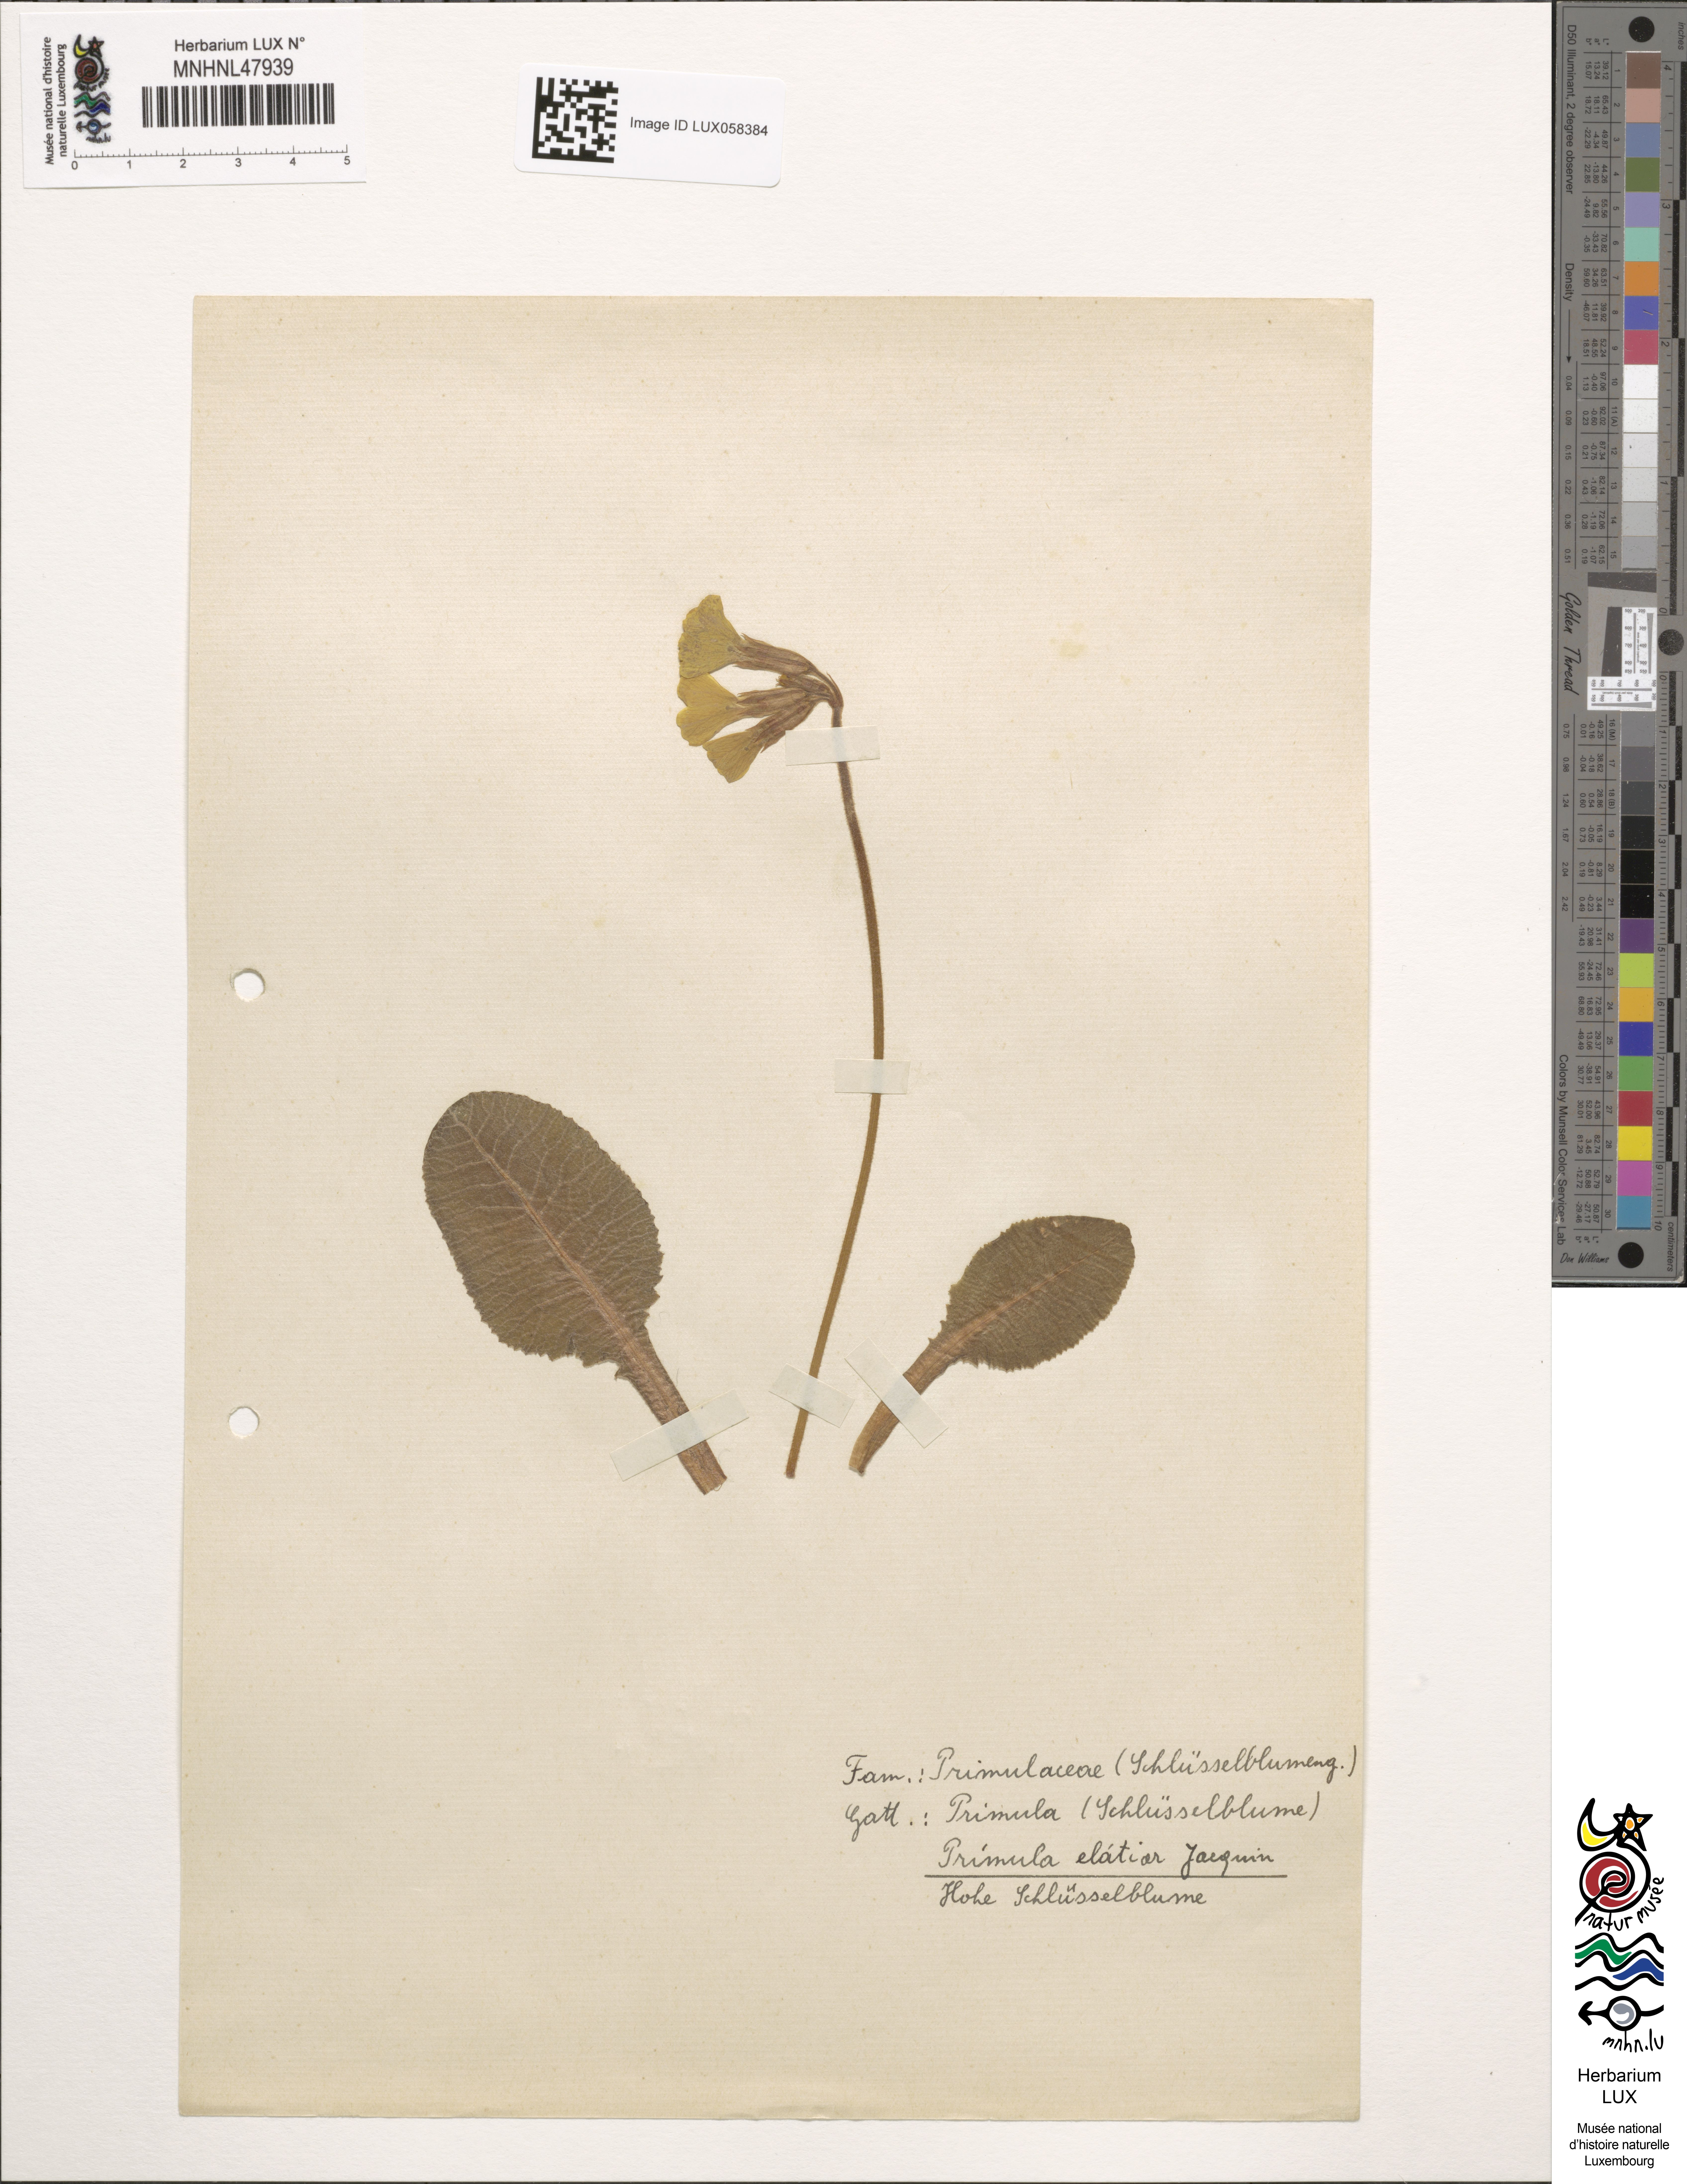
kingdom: Plantae
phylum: Tracheophyta
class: Magnoliopsida
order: Ericales
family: Primulaceae
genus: Primula
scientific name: Primula elatior
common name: Oxlip
